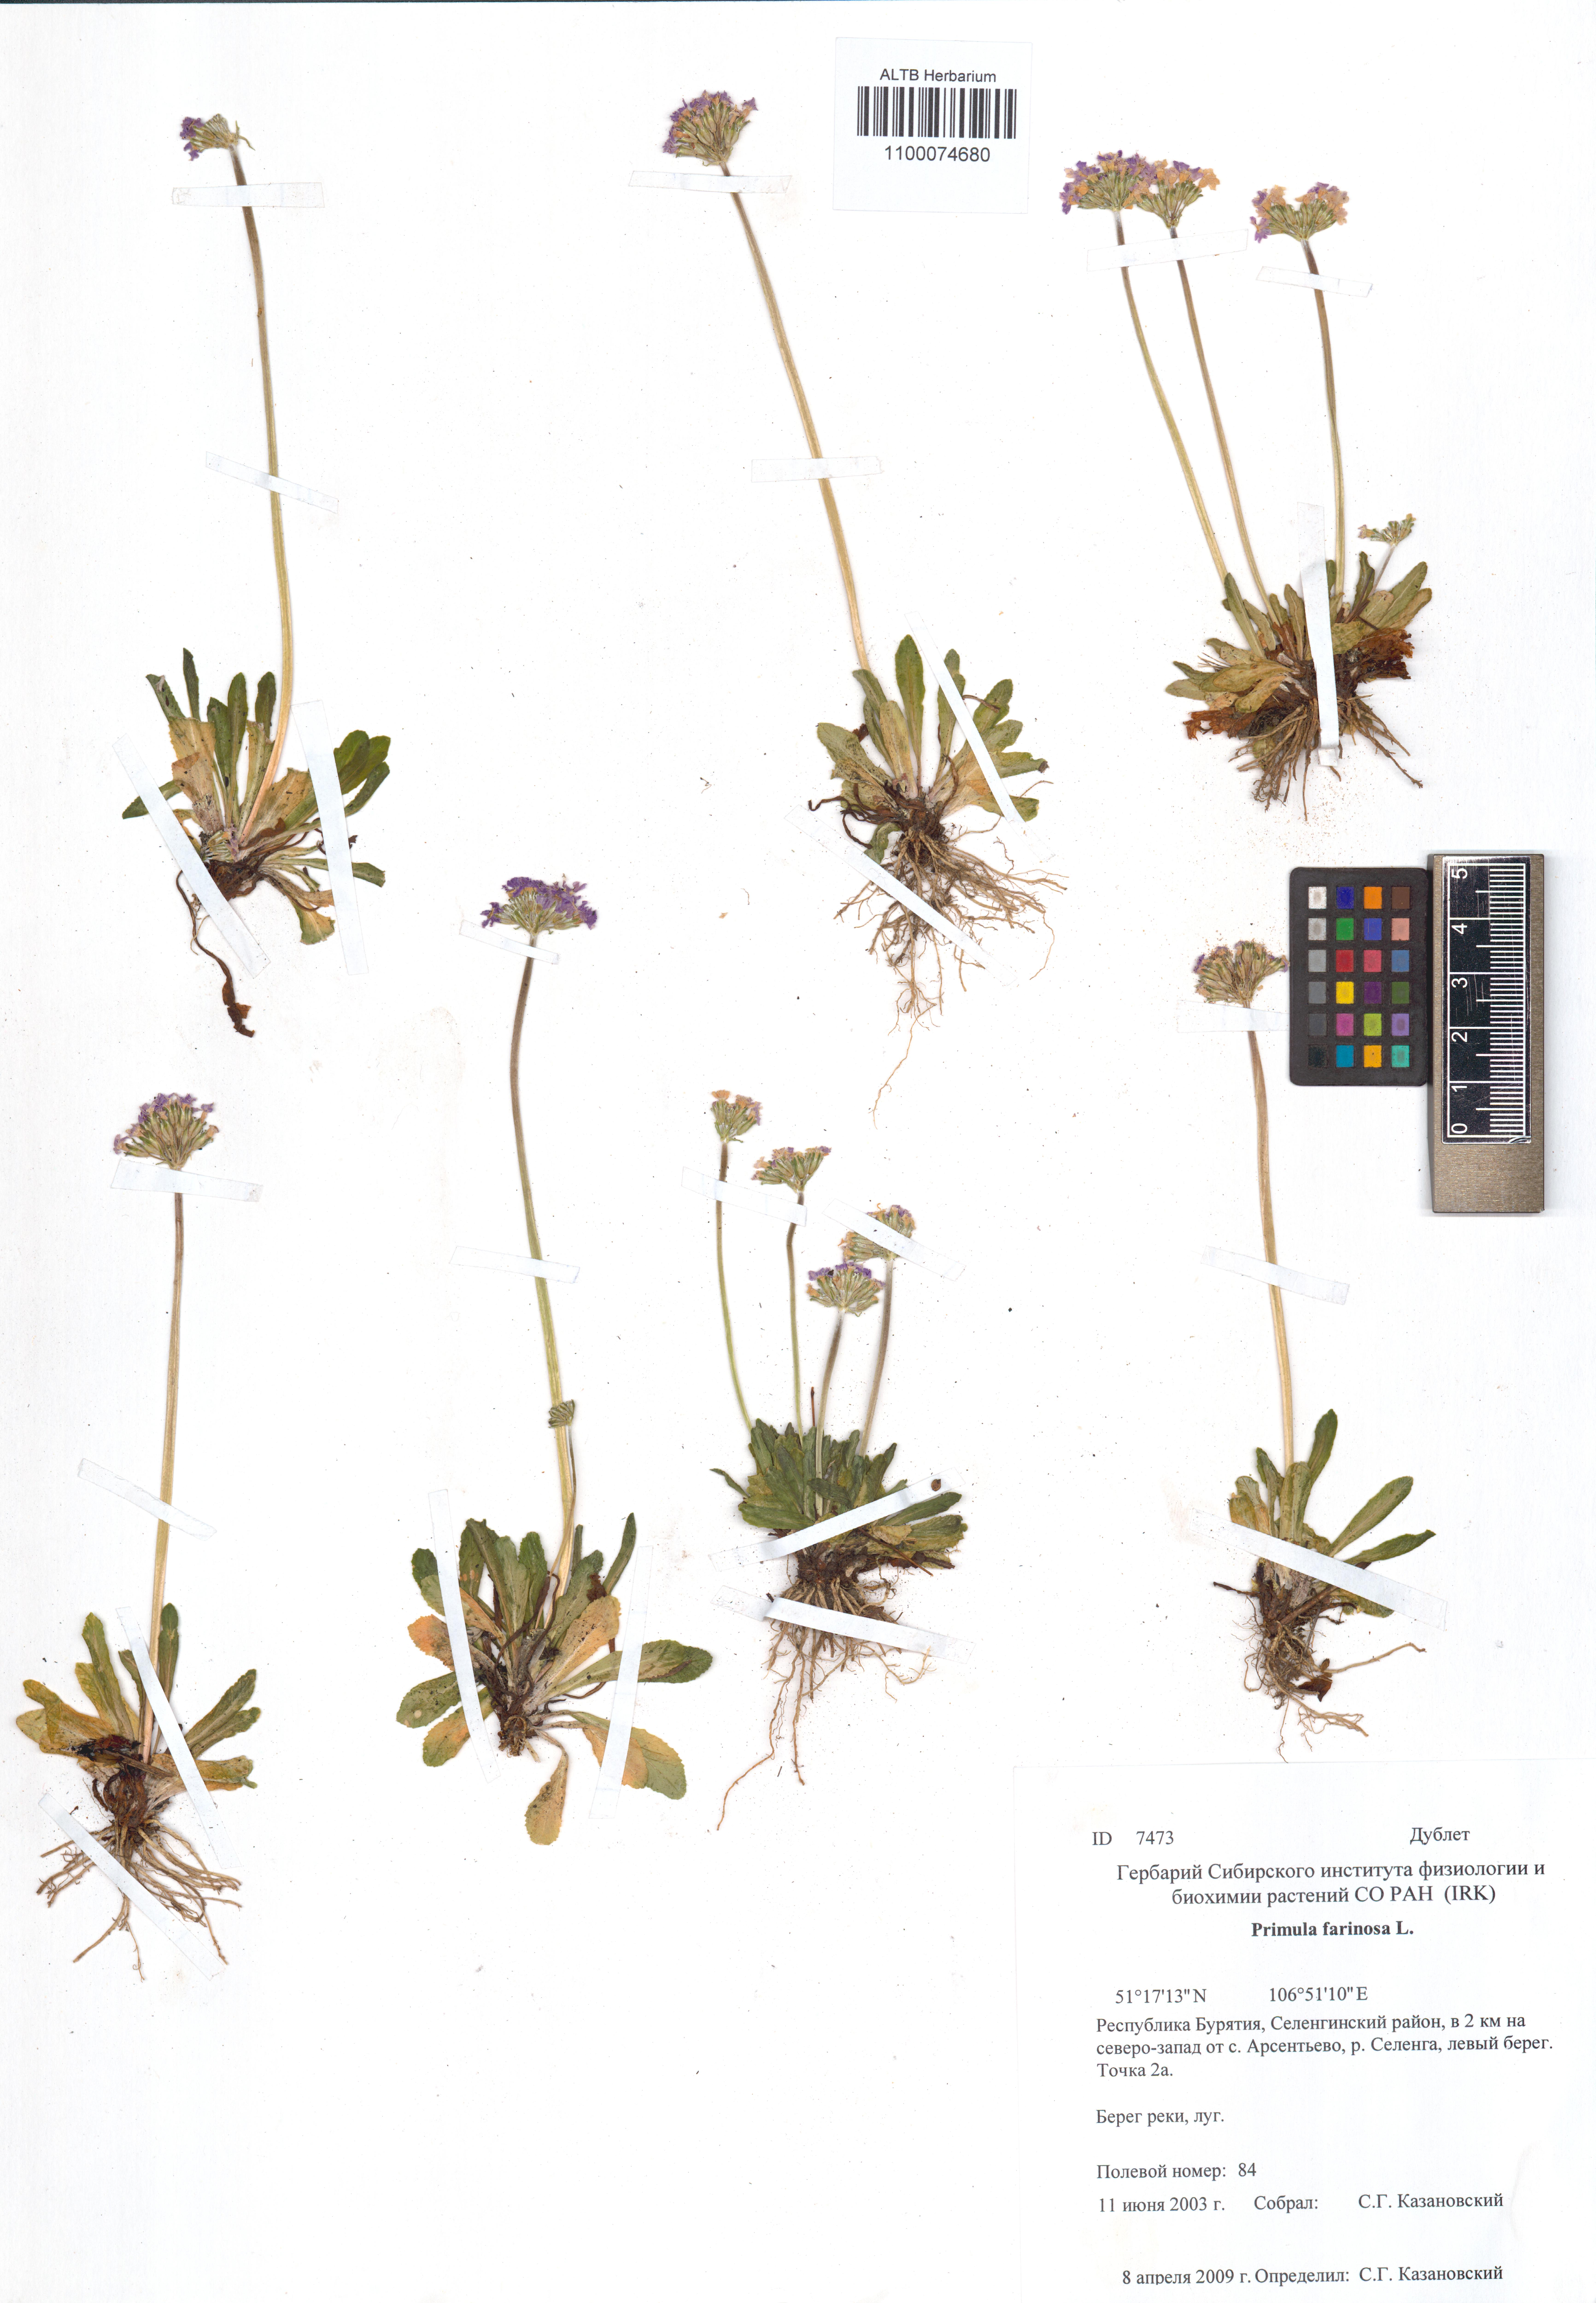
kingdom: Plantae
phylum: Tracheophyta
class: Magnoliopsida
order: Ericales
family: Primulaceae
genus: Primula
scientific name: Primula farinosa
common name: Bird's-eye primrose
